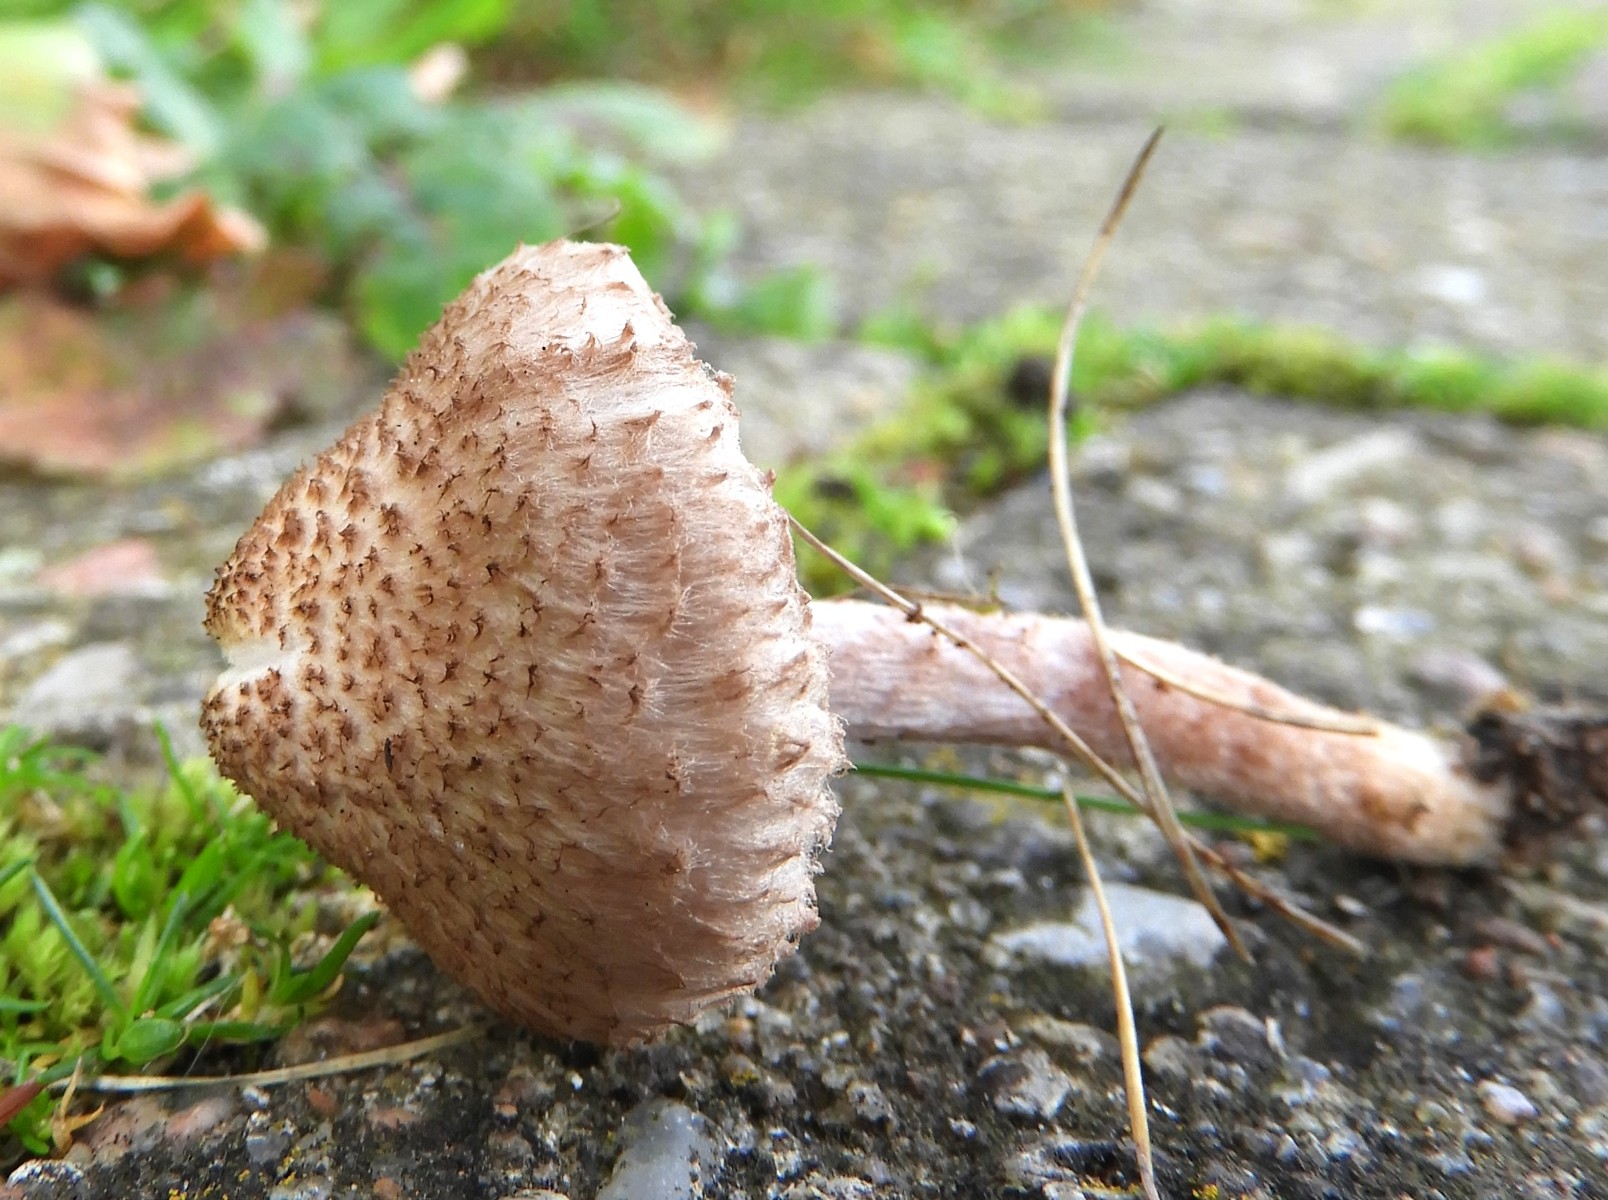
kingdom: Fungi
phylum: Basidiomycota
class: Agaricomycetes
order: Agaricales
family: Inocybaceae
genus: Inocybe
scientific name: Inocybe cincinnata
